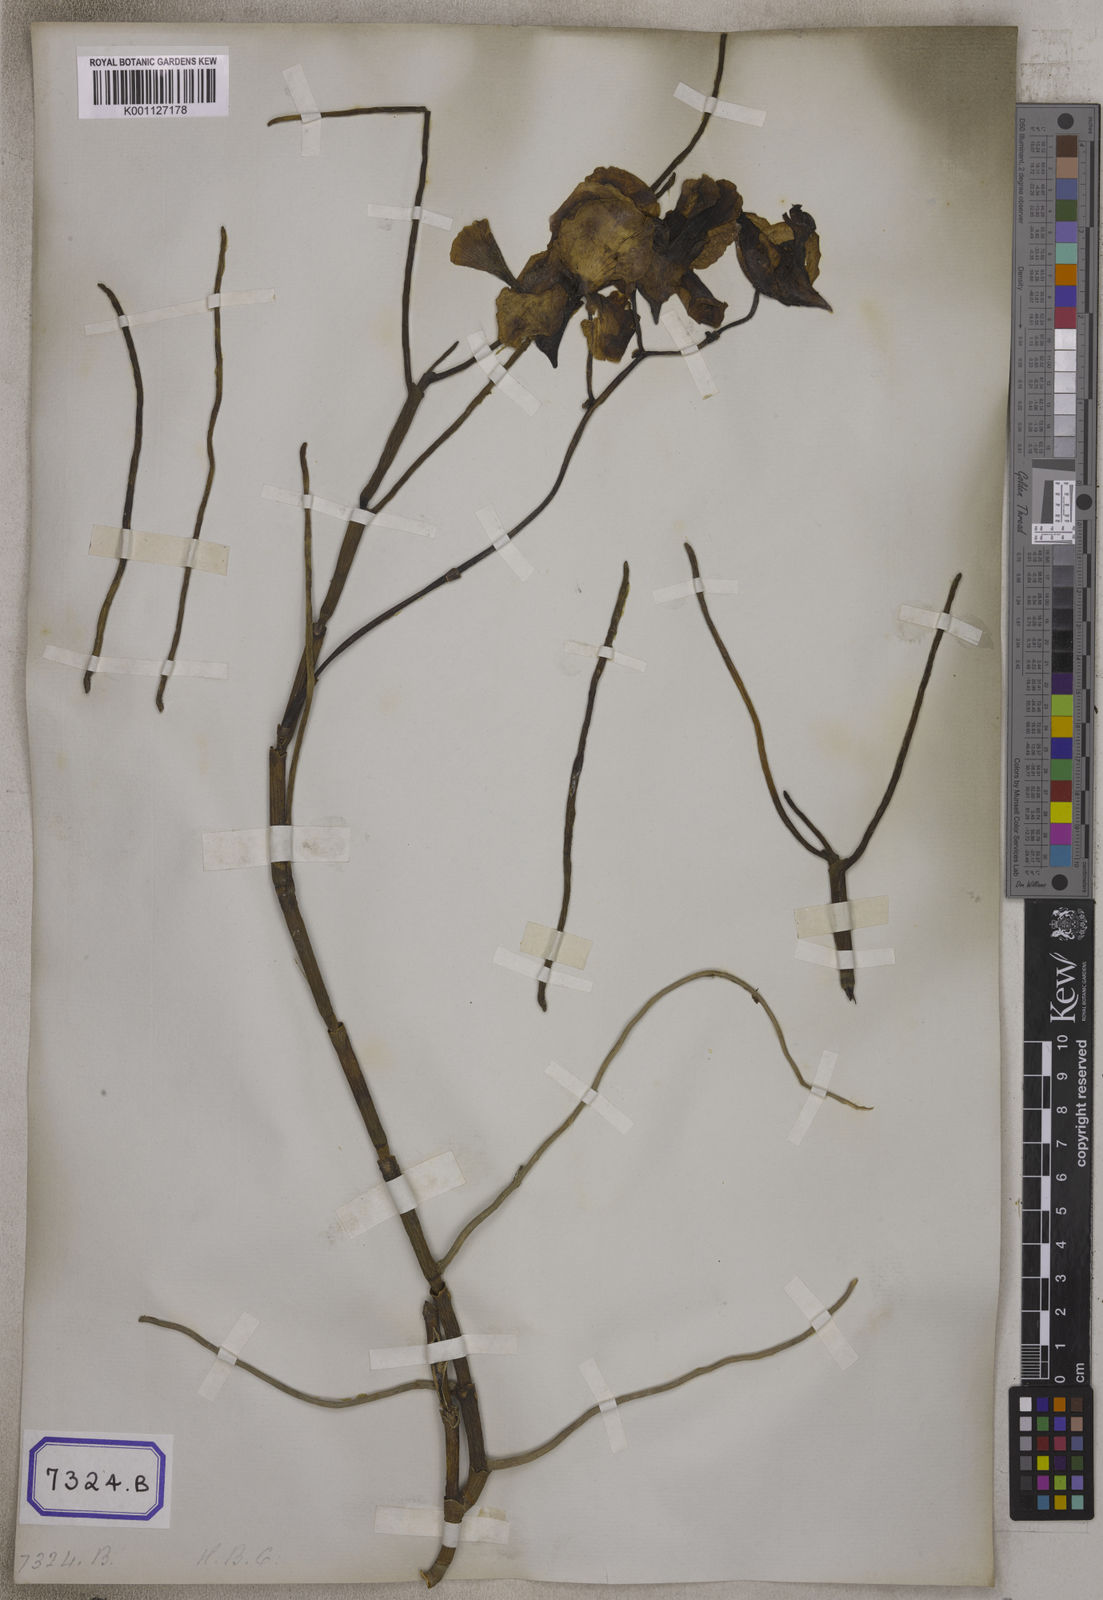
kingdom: Plantae
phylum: Tracheophyta
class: Liliopsida
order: Asparagales
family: Orchidaceae
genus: Papilionanthe
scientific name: Papilionanthe teres
